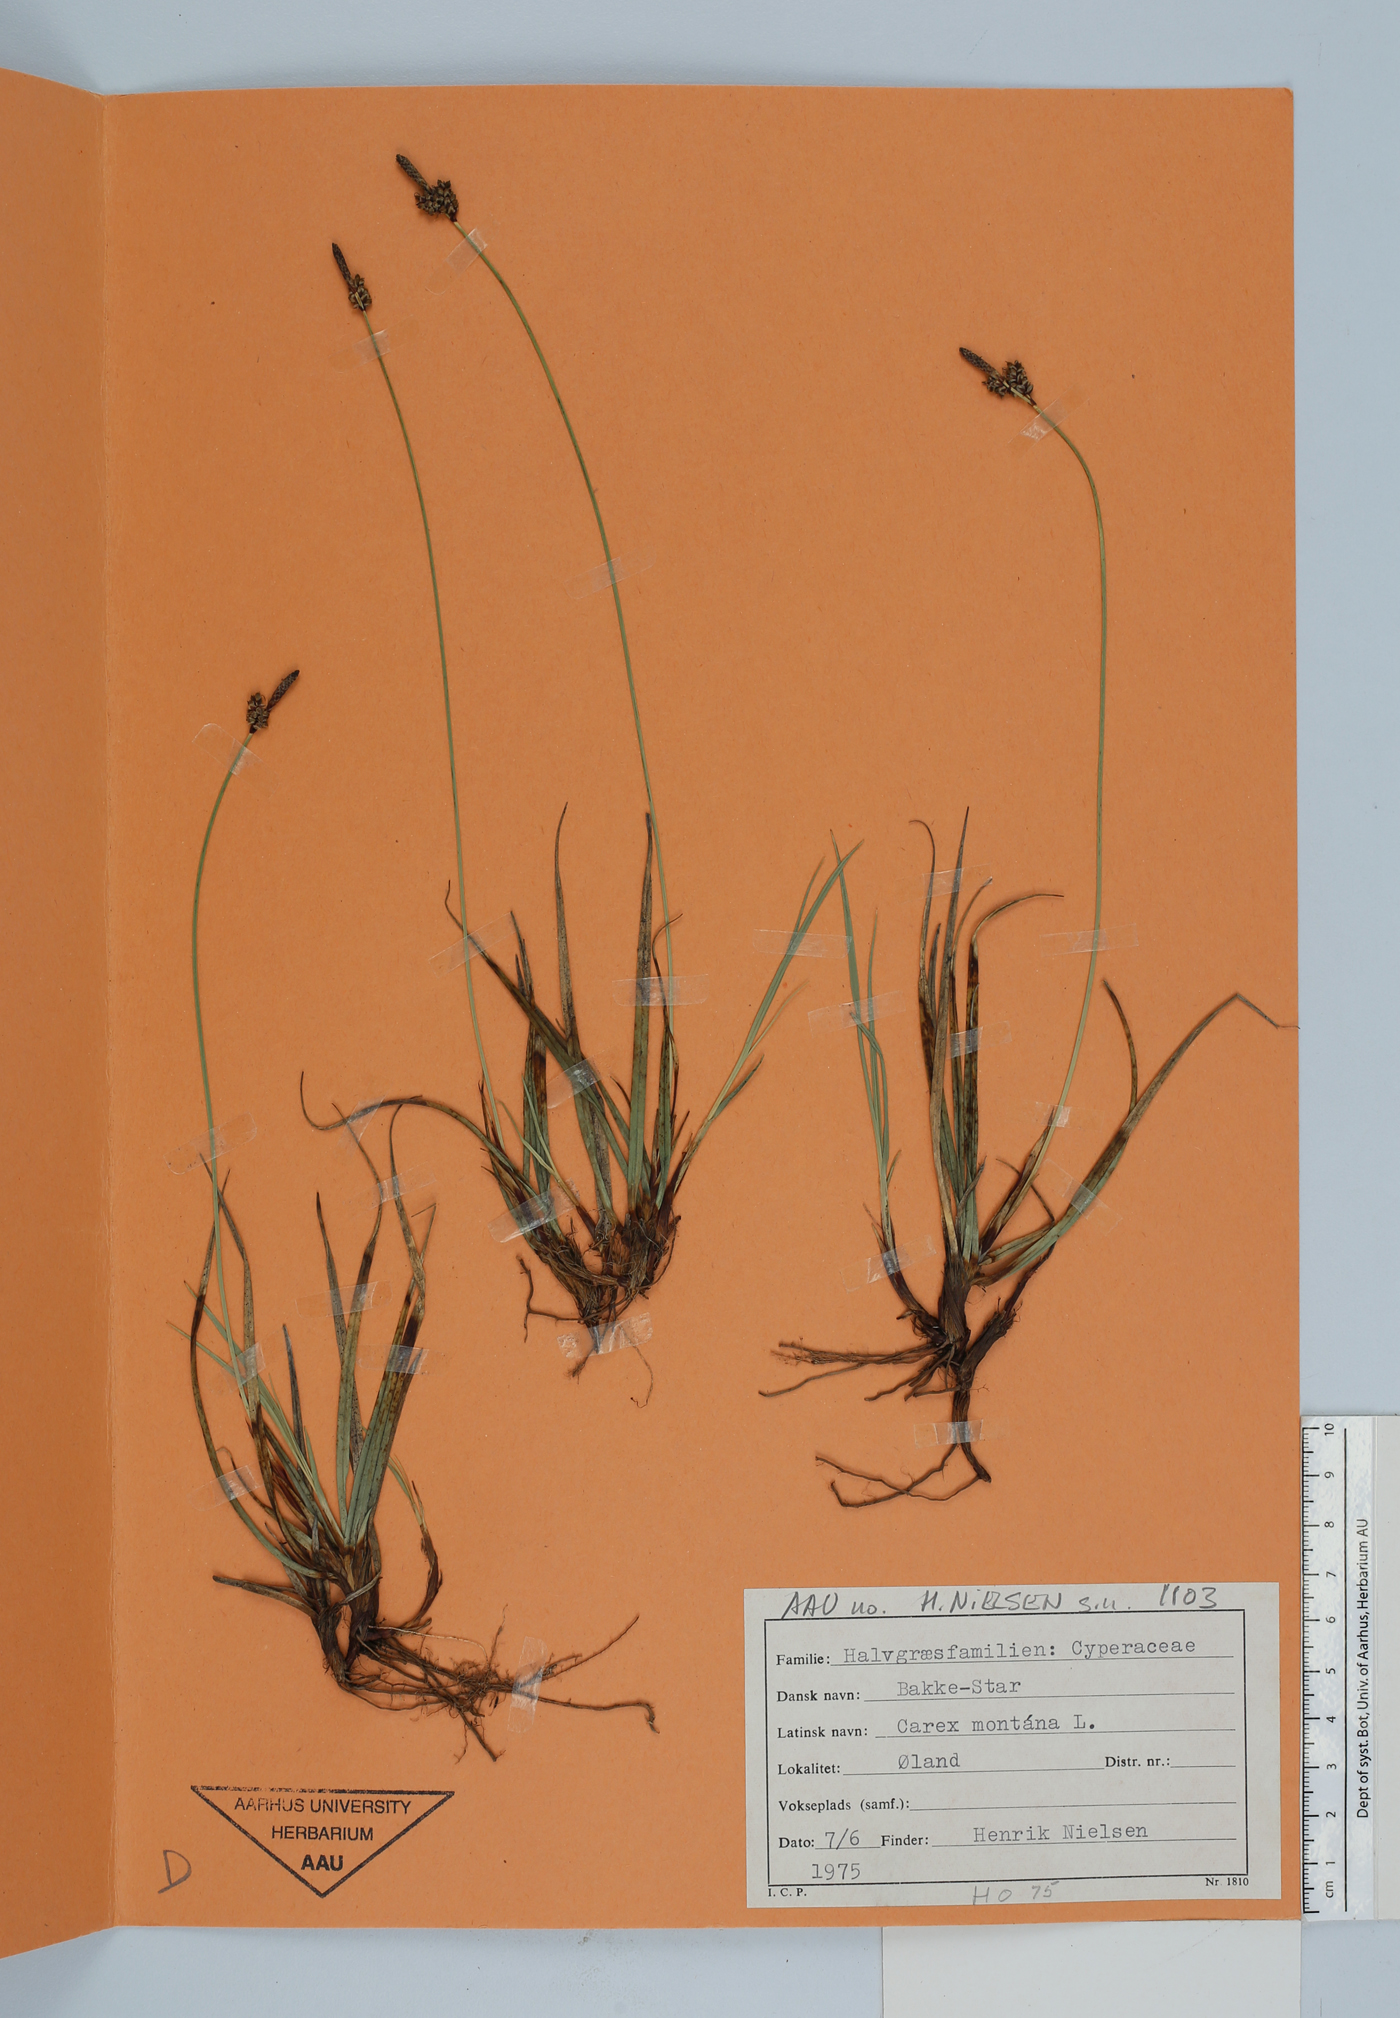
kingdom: Plantae
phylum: Tracheophyta
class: Liliopsida
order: Poales
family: Cyperaceae
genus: Carex
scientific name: Carex montana
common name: Soft-leaved sedge
